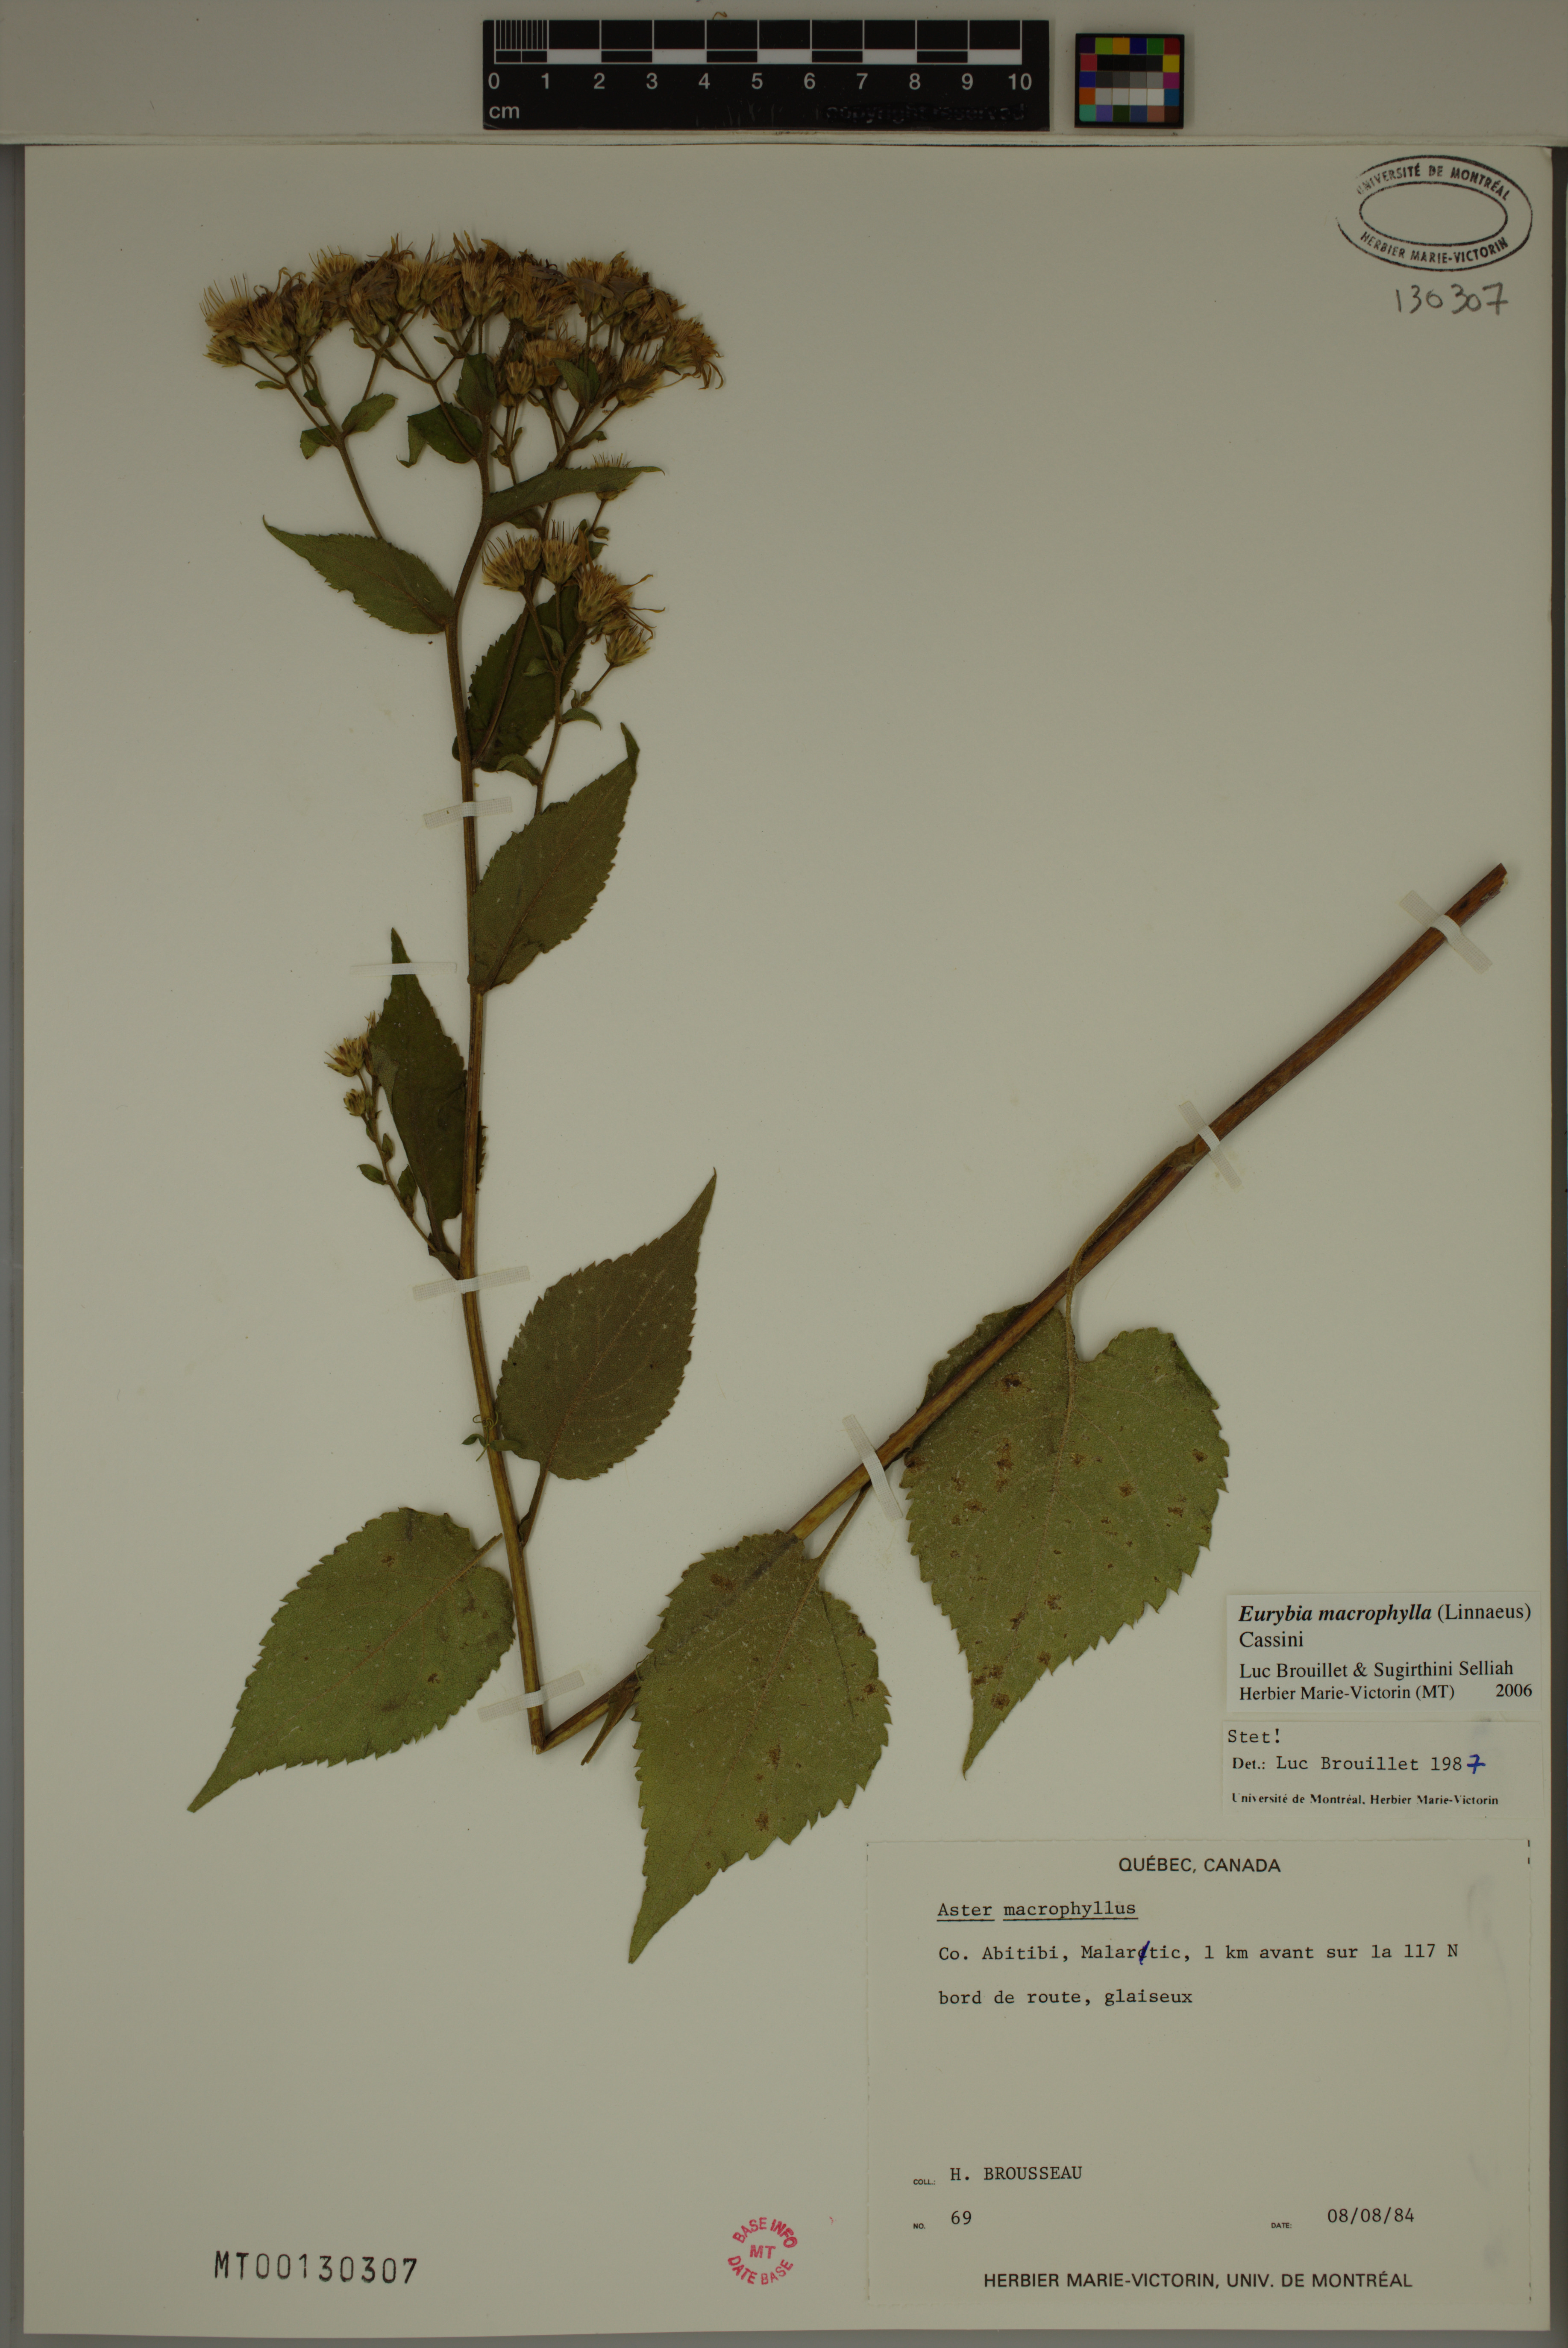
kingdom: Plantae
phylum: Tracheophyta
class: Magnoliopsida
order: Asterales
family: Asteraceae
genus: Eurybia
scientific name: Eurybia macrophylla
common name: Big-leaved aster
